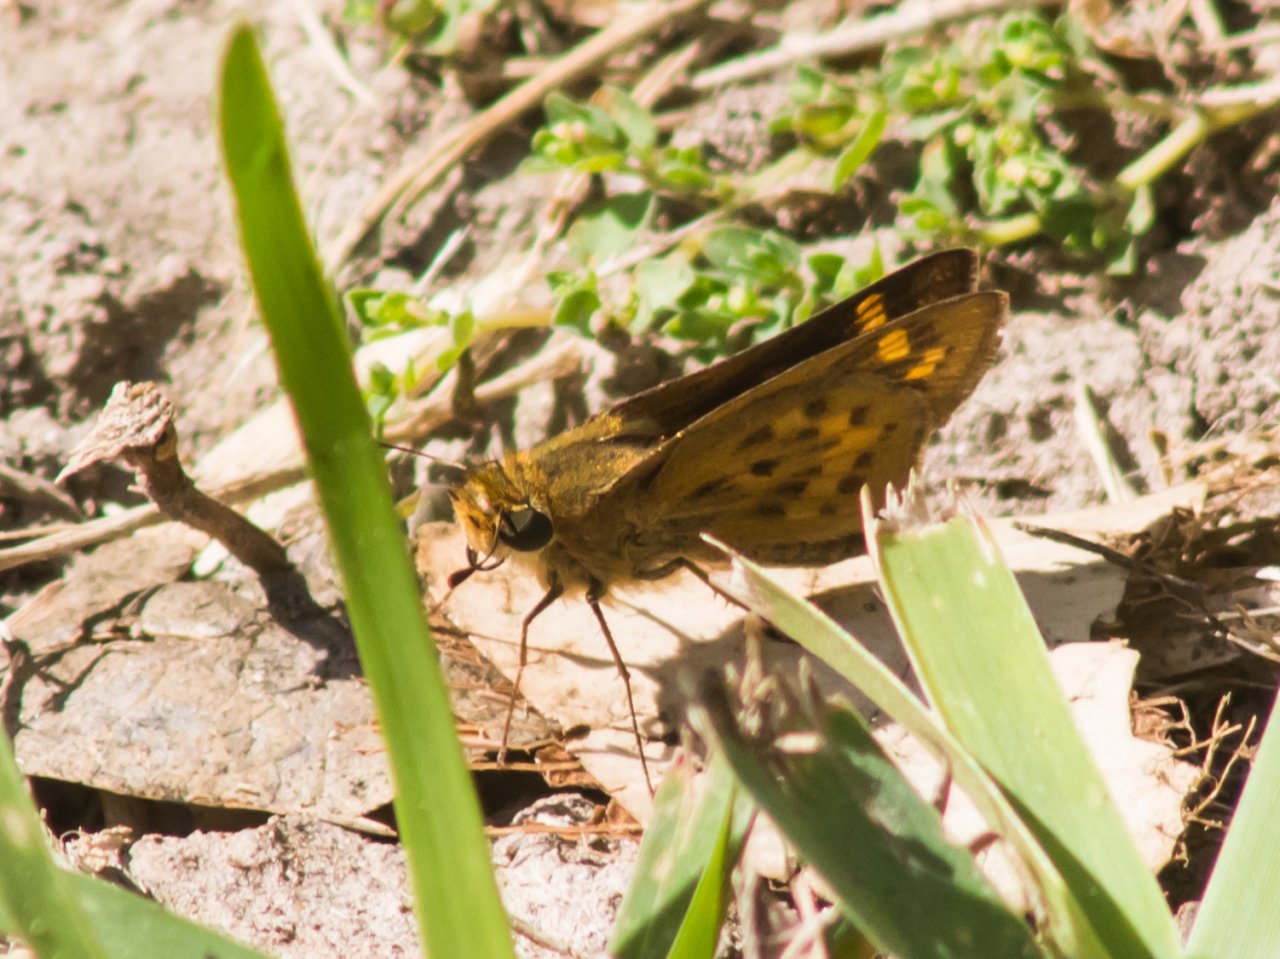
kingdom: Animalia
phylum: Arthropoda
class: Insecta
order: Lepidoptera
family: Hesperiidae
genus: Hylephila
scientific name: Hylephila phyleus
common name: Fiery Skipper
